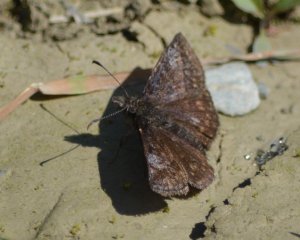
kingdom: Animalia
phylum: Arthropoda
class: Insecta
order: Lepidoptera
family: Hesperiidae
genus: Erynnis
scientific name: Erynnis icelus
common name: Dreamy Duskywing
